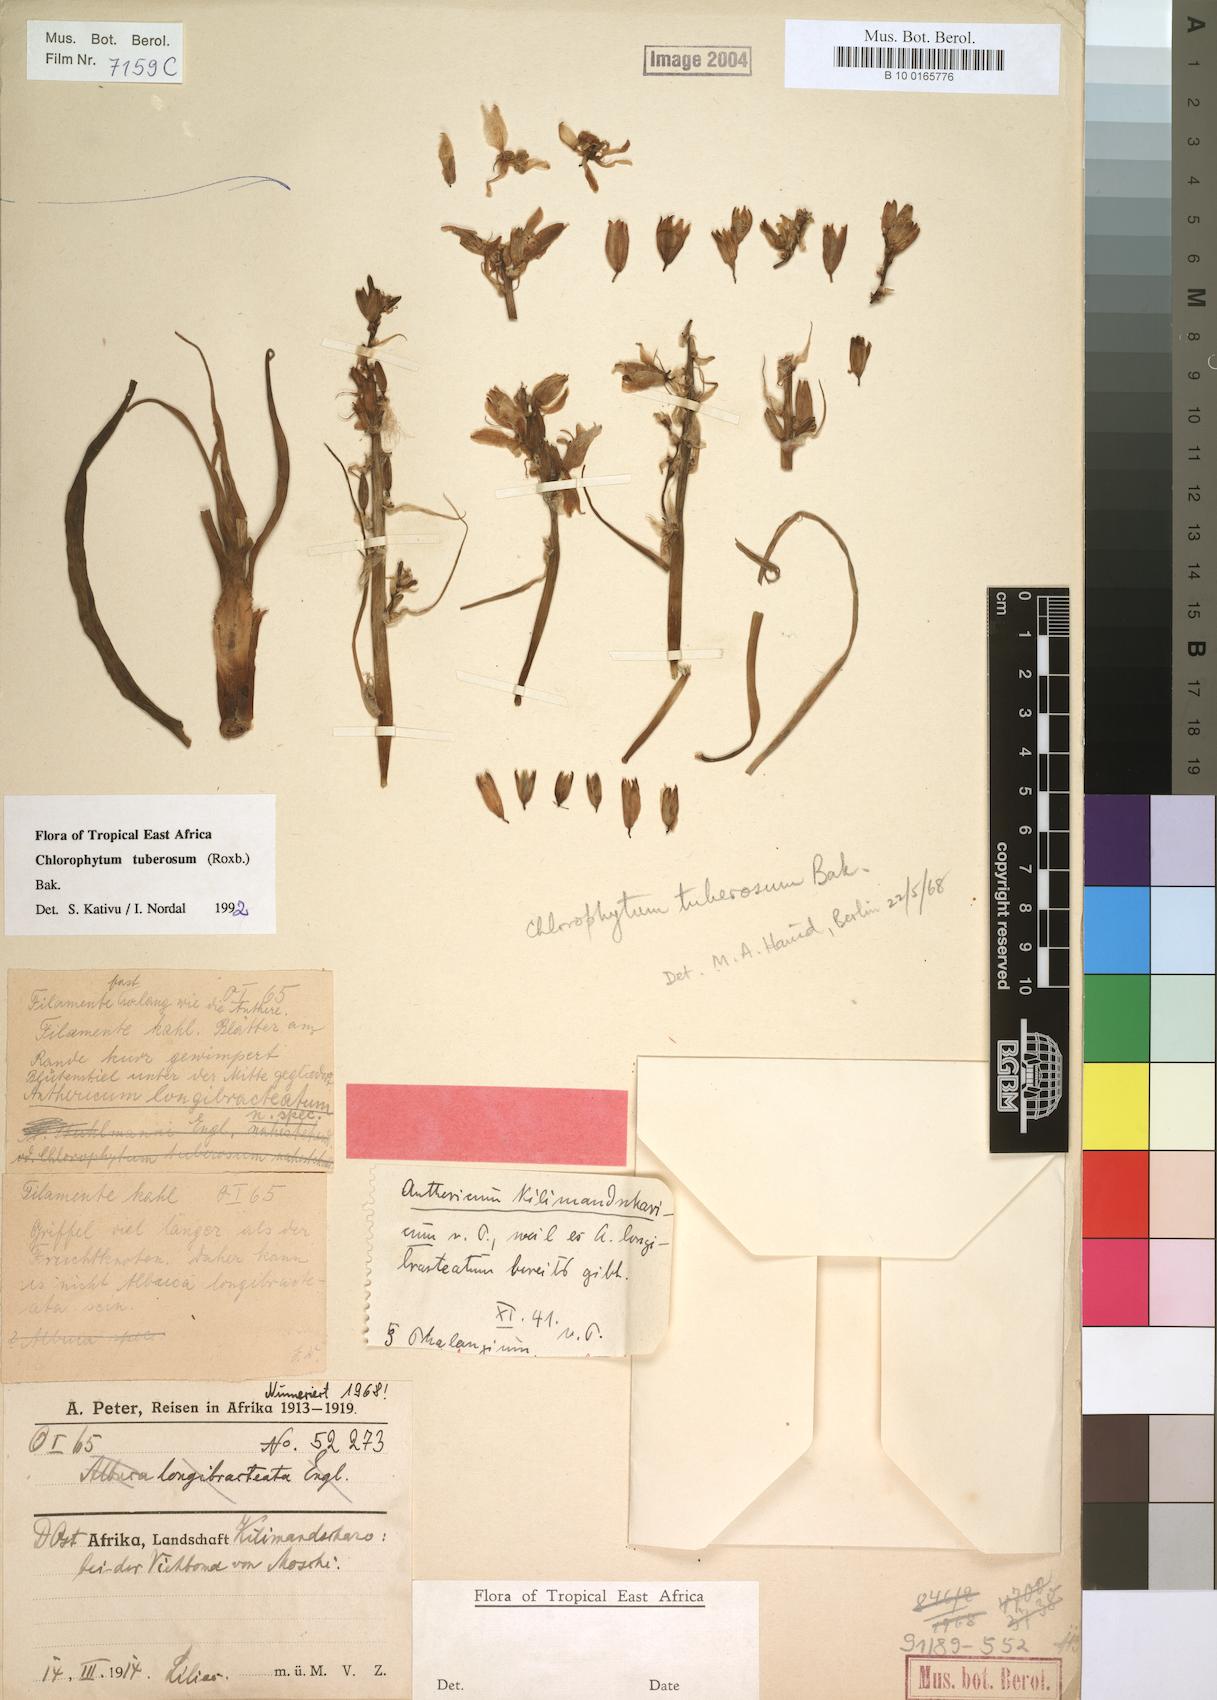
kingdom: Plantae
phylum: Tracheophyta
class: Liliopsida
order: Asparagales
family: Asparagaceae
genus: Chlorophytum
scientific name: Chlorophytum tuberosum
